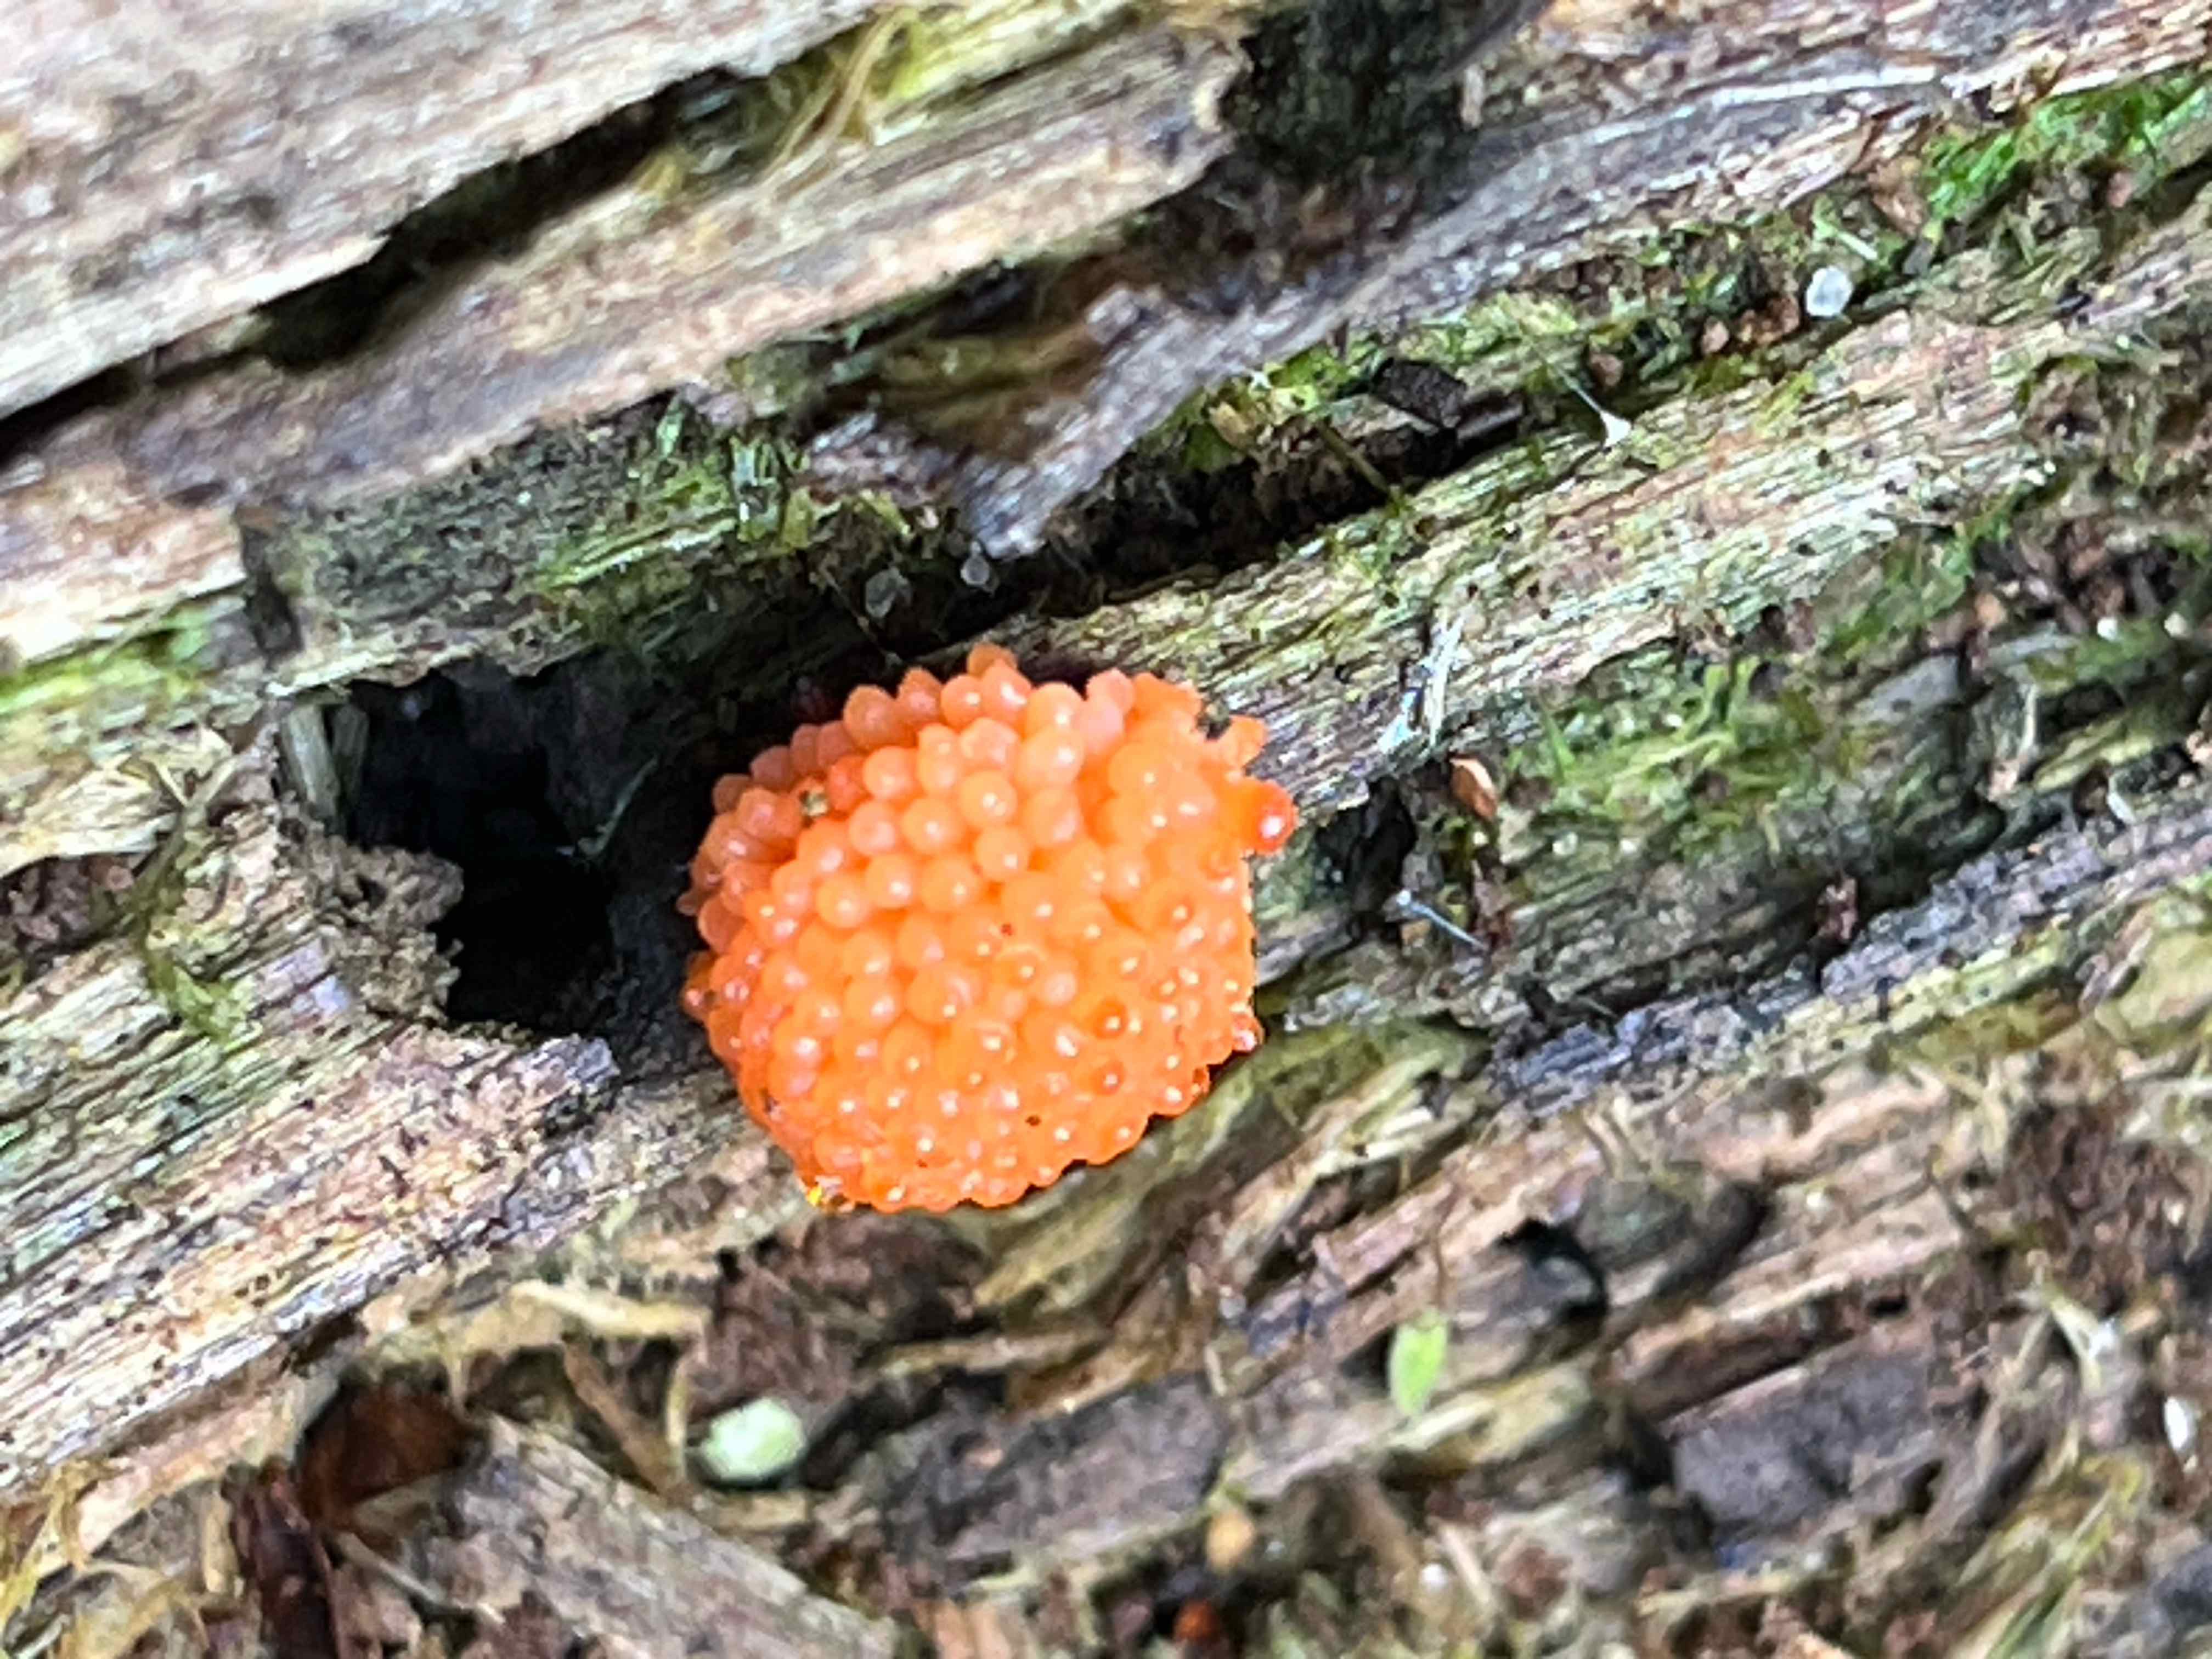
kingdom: Protozoa
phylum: Mycetozoa
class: Myxomycetes
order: Cribrariales
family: Tubiferaceae
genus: Tubifera
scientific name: Tubifera
